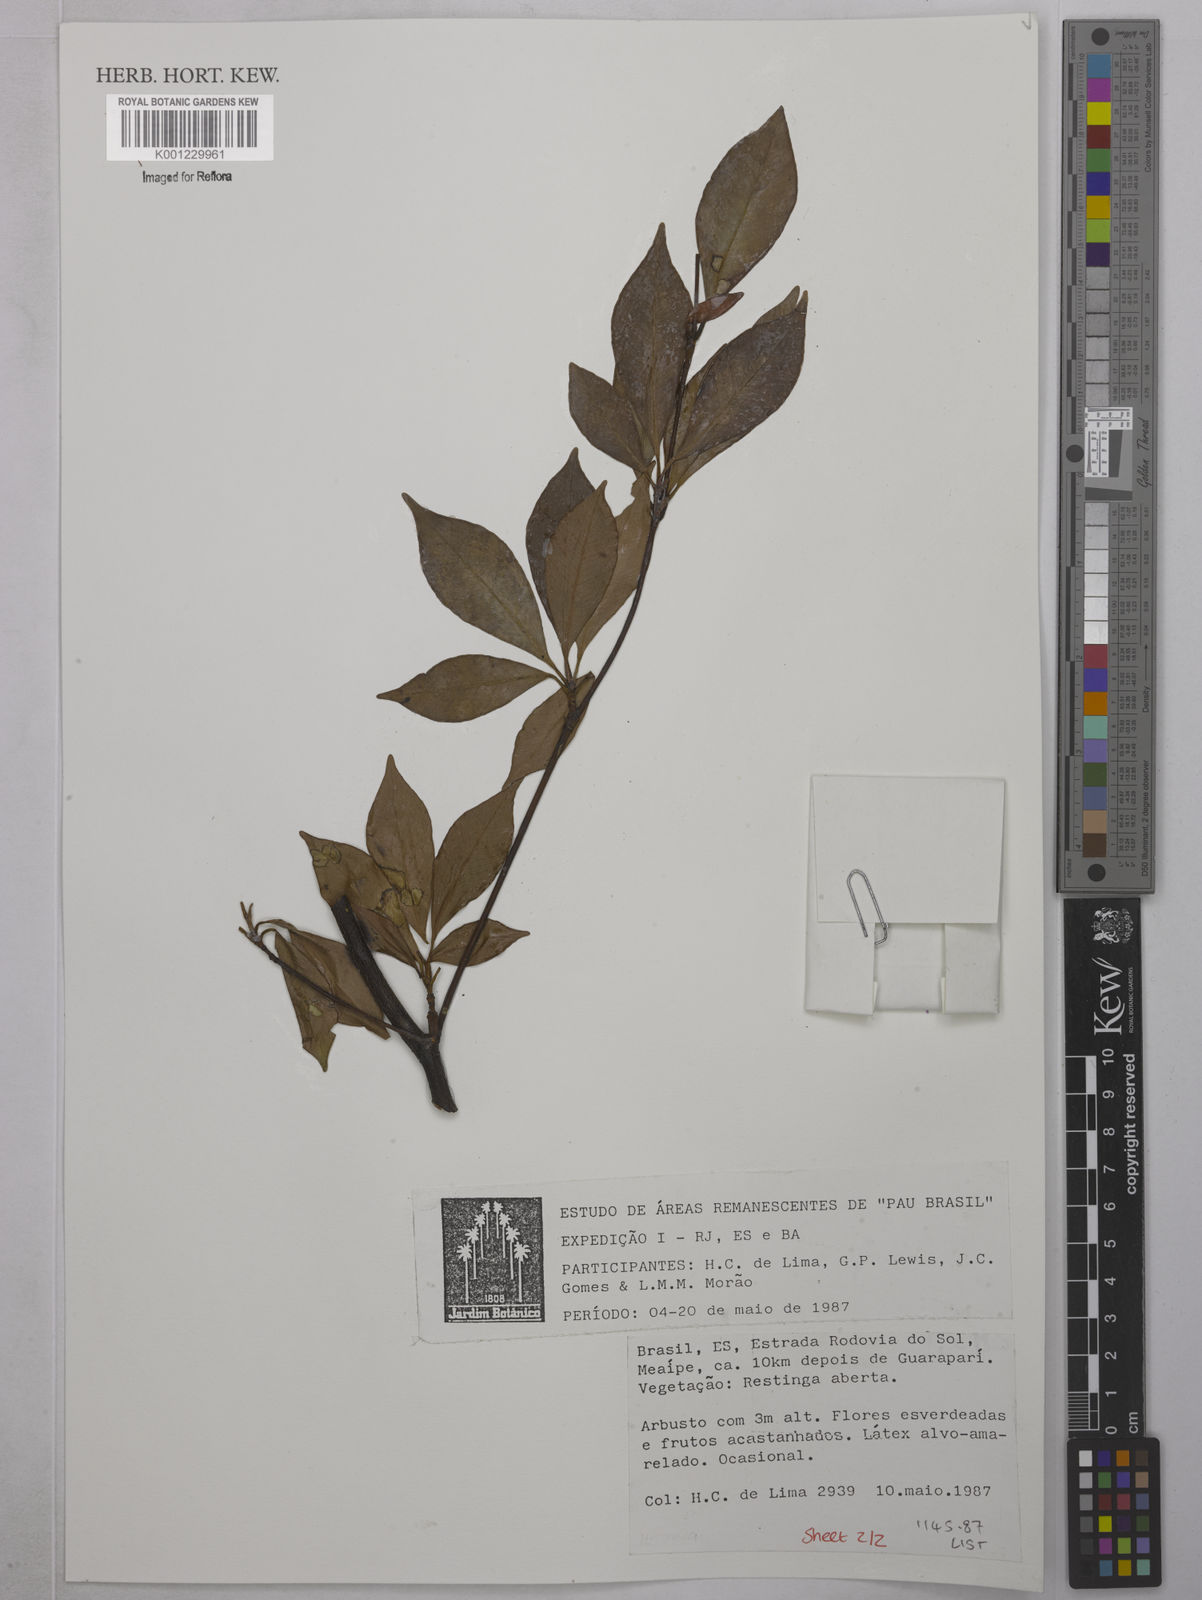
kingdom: Plantae
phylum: Tracheophyta
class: Magnoliopsida
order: Malpighiales
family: Clusiaceae
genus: Tovomita
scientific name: Tovomita
